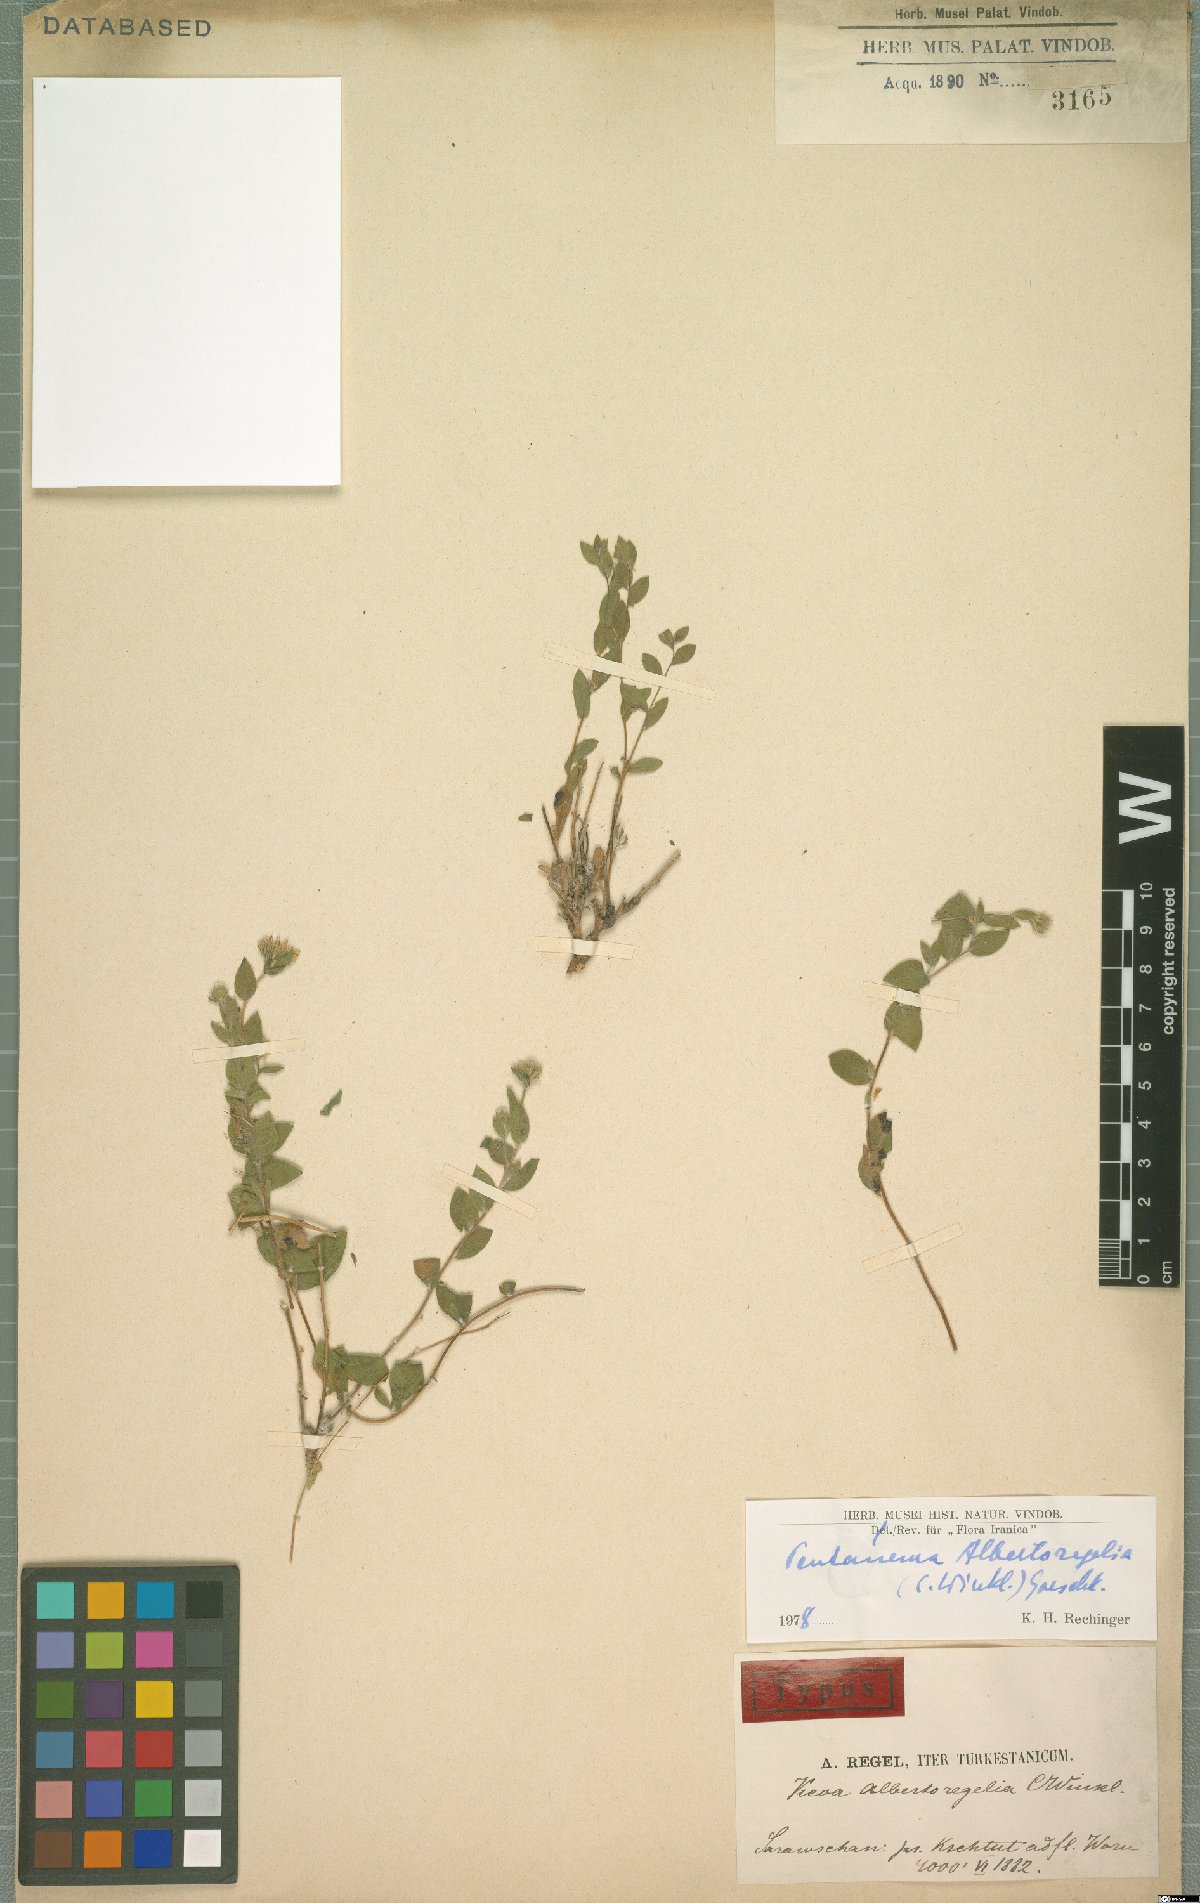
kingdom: Plantae
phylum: Tracheophyta
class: Magnoliopsida
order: Asterales
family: Asteraceae
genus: Vicoa
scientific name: Vicoa albertoregelia
